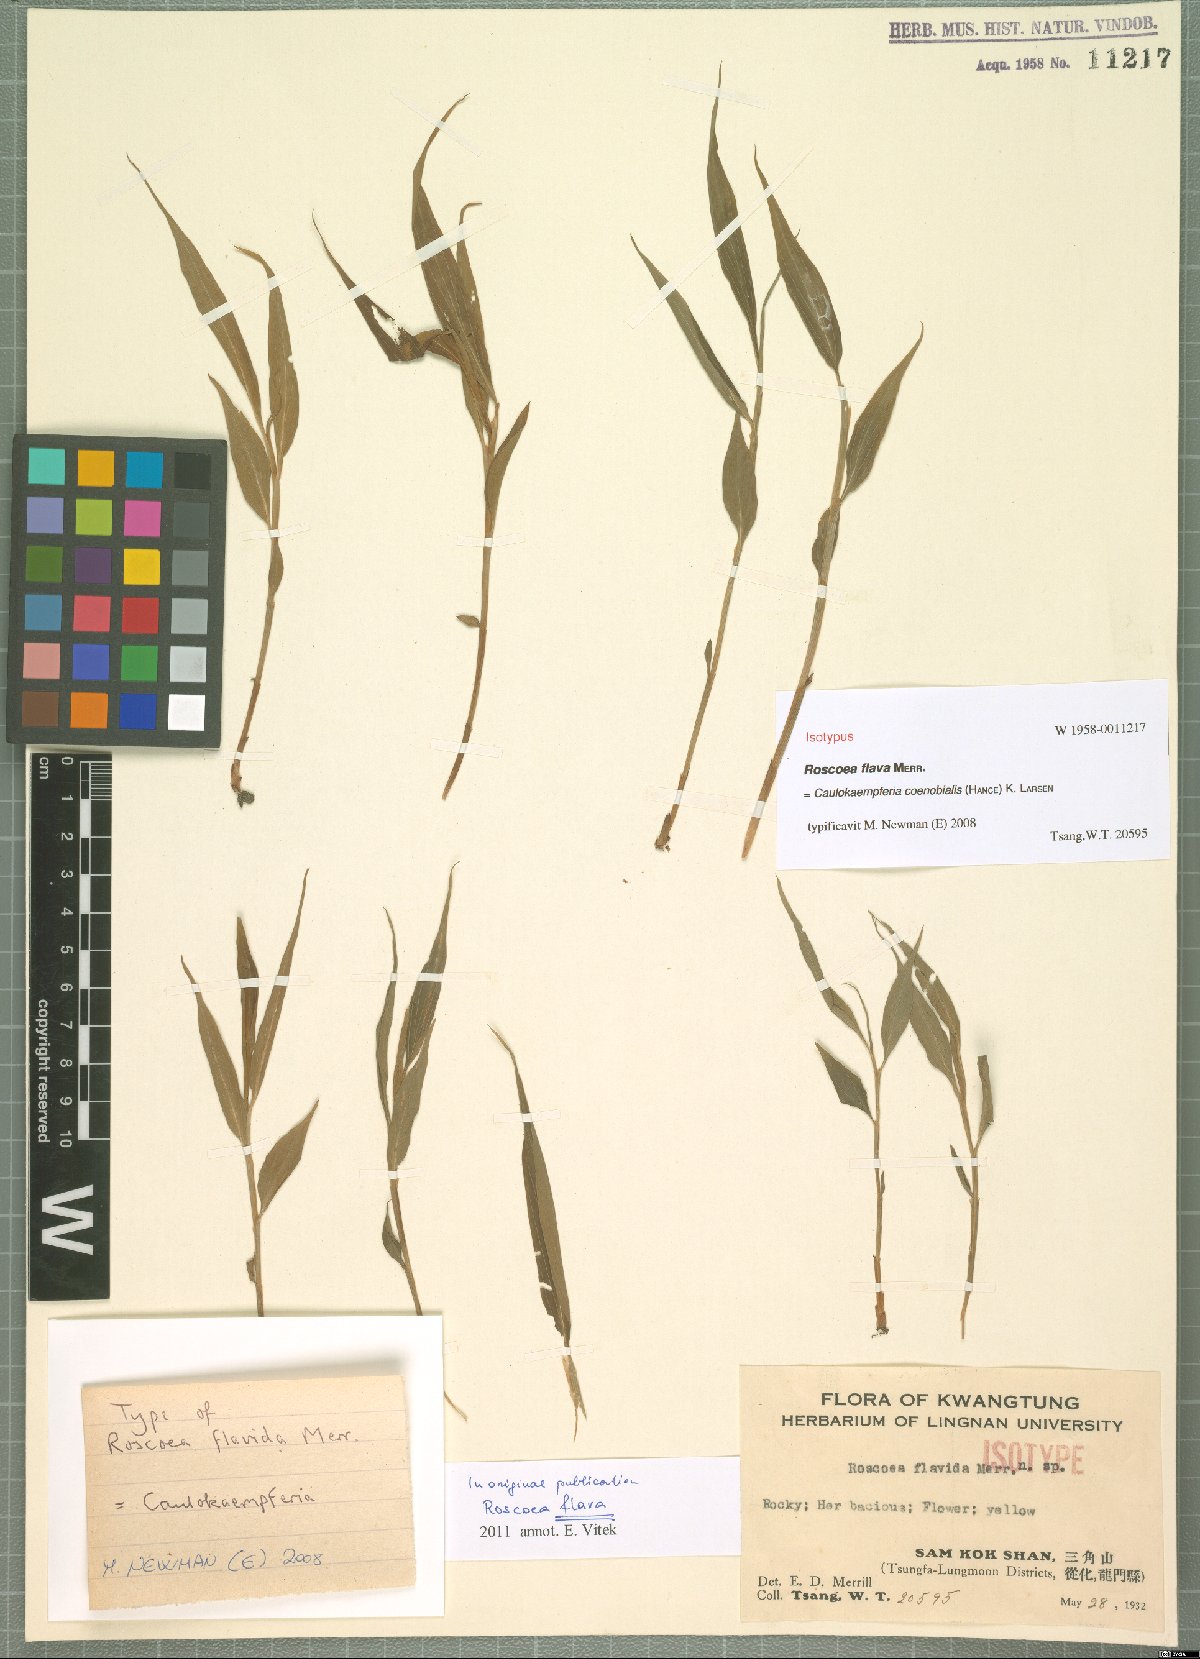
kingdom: Plantae
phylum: Tracheophyta
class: Liliopsida
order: Zingiberales
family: Zingiberaceae
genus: Caulokaempferia
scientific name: Caulokaempferia coenobialis
